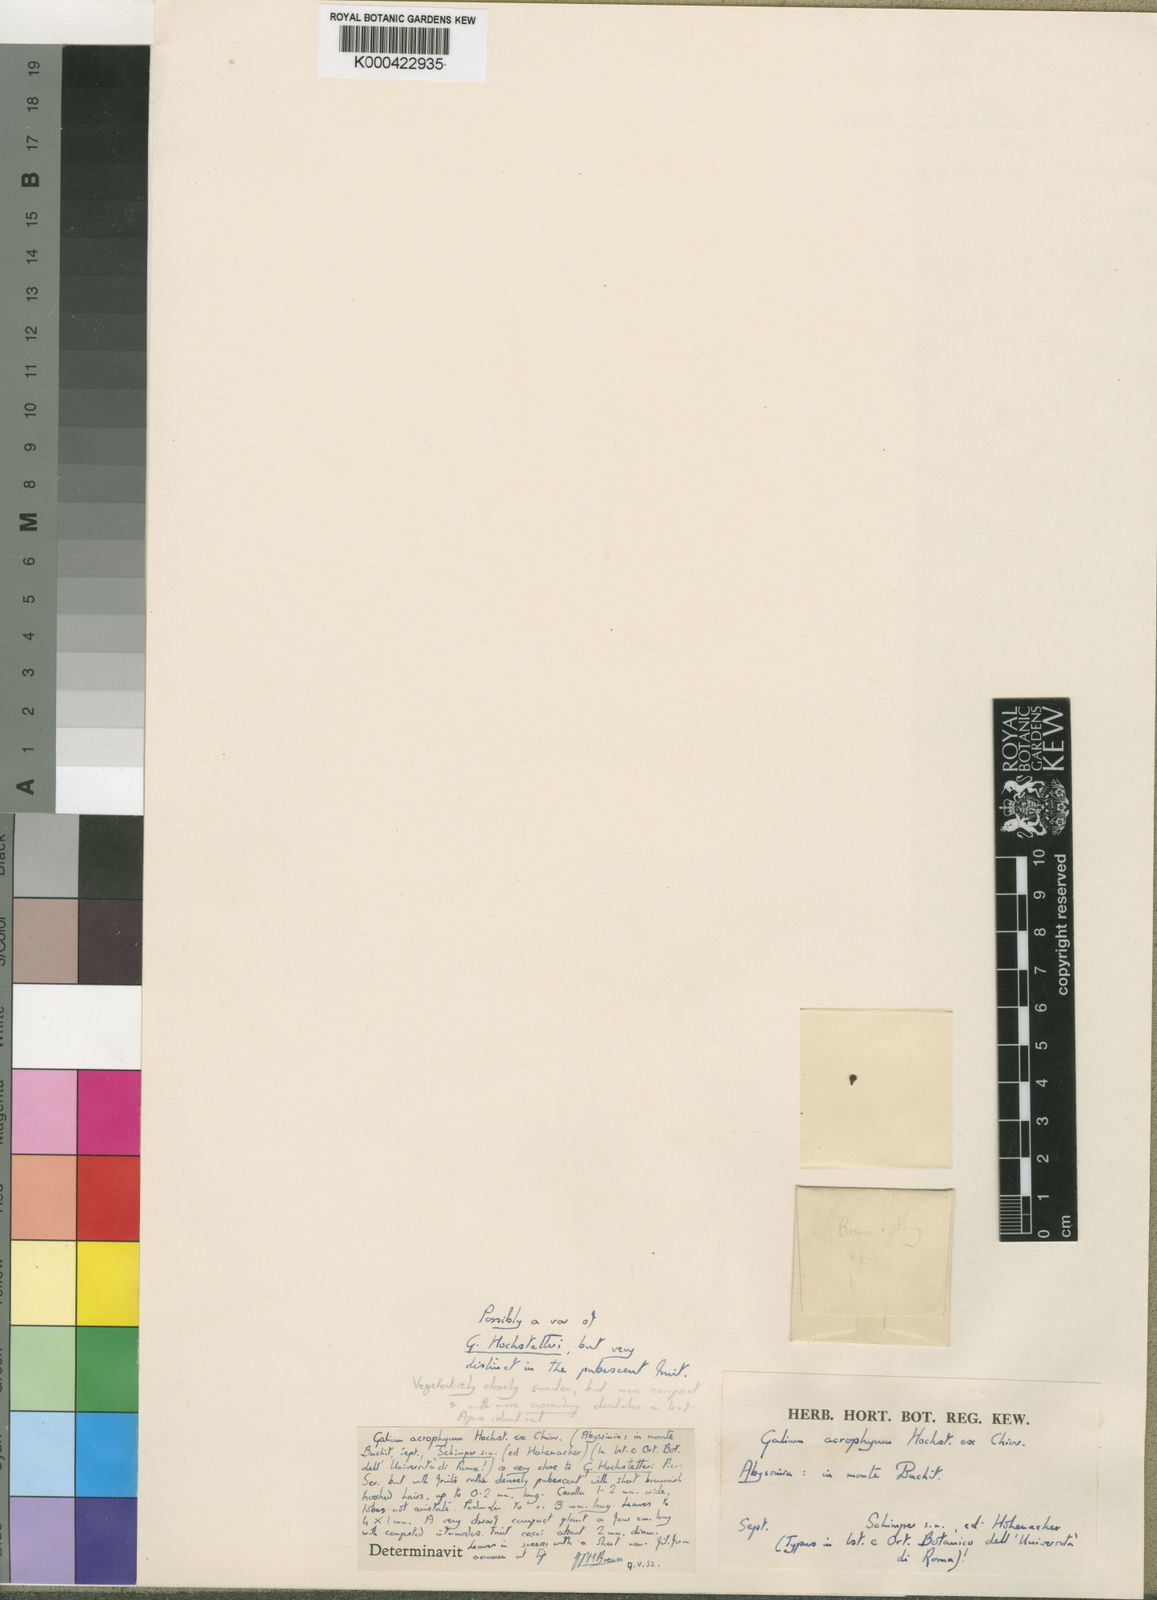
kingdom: Plantae
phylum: Tracheophyta
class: Magnoliopsida
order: Gentianales
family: Rubiaceae
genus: Galium
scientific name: Galium acrophyum
